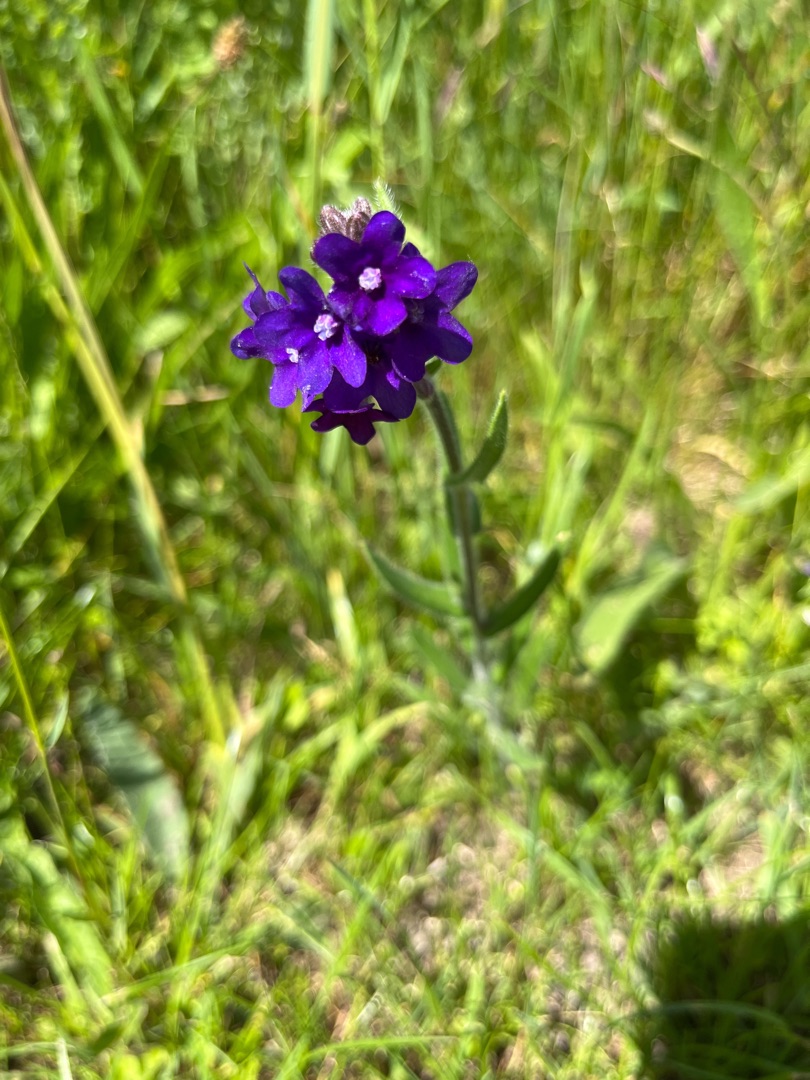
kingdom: Plantae
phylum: Tracheophyta
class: Magnoliopsida
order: Boraginales
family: Boraginaceae
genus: Anchusa
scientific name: Anchusa officinalis
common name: Læge-oksetunge
